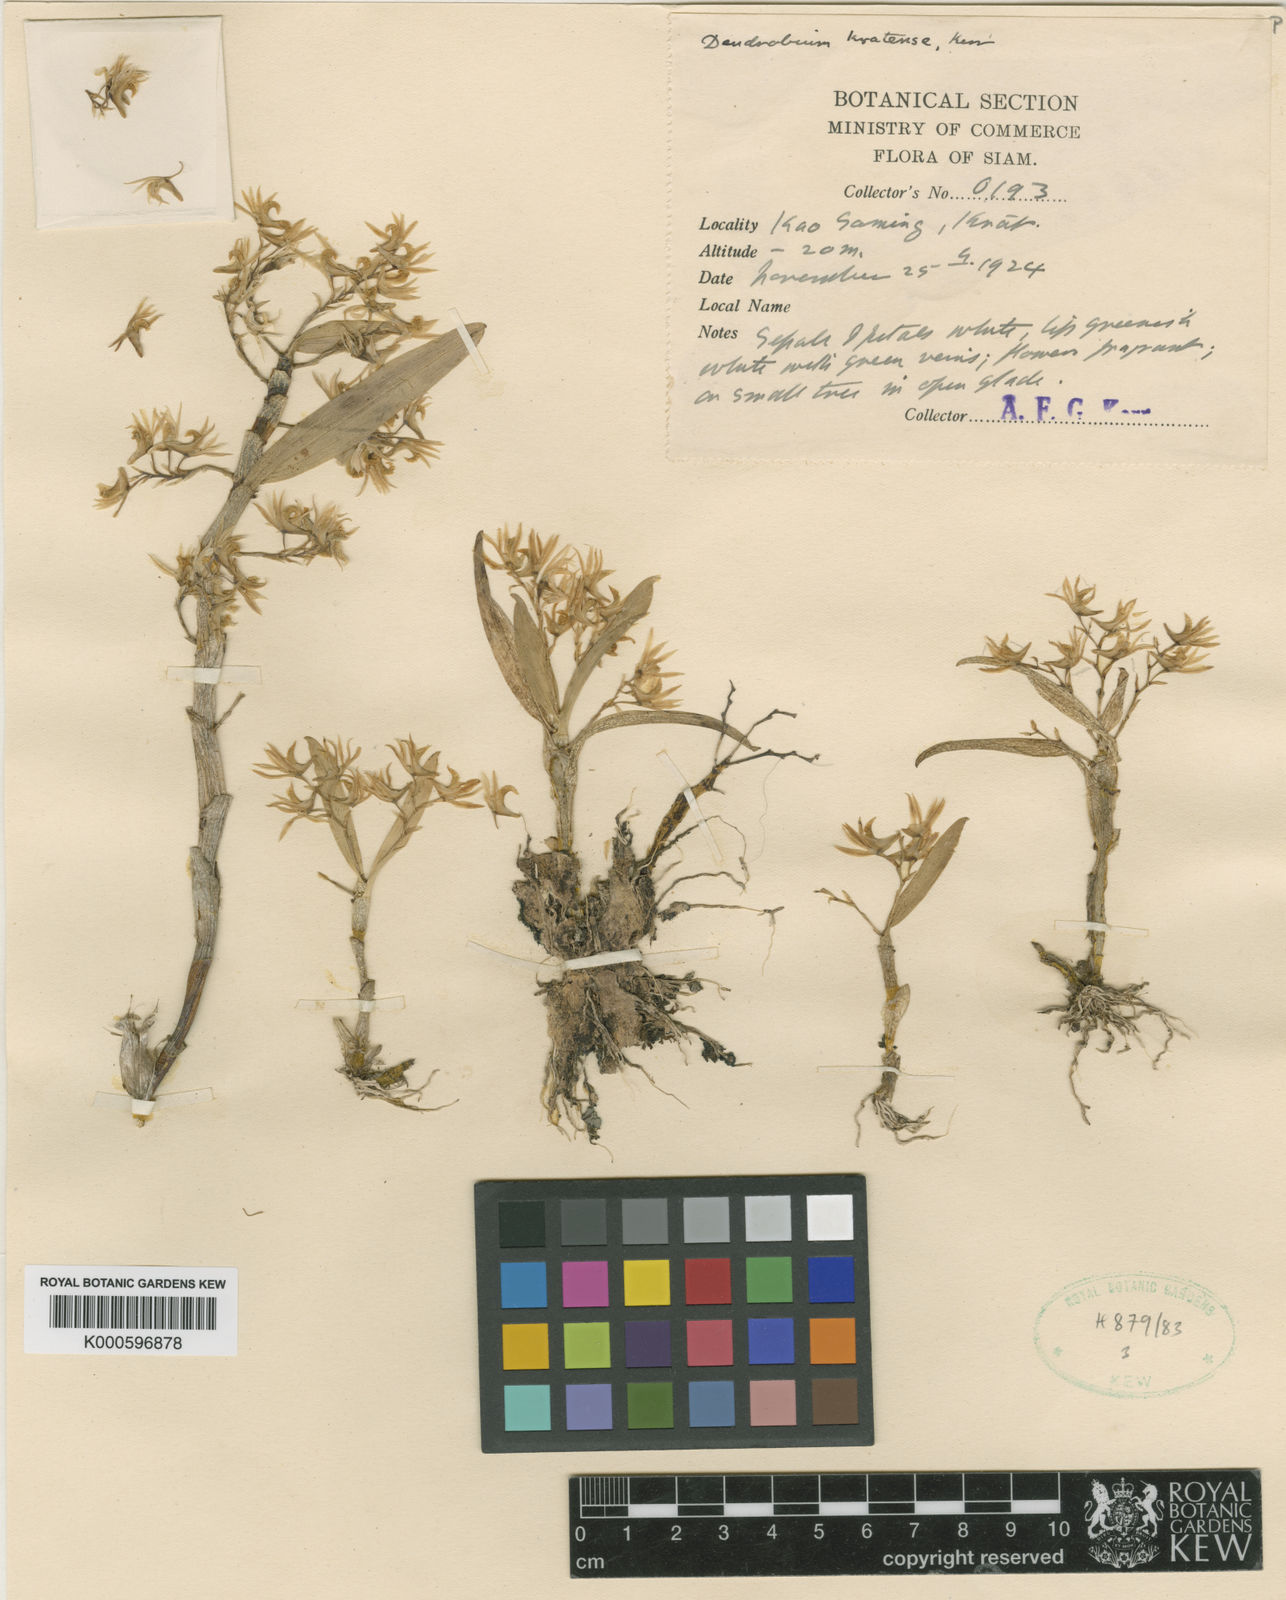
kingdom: Plantae
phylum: Tracheophyta
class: Liliopsida
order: Asparagales
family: Orchidaceae
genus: Dendrobium
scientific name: Dendrobium kratense
